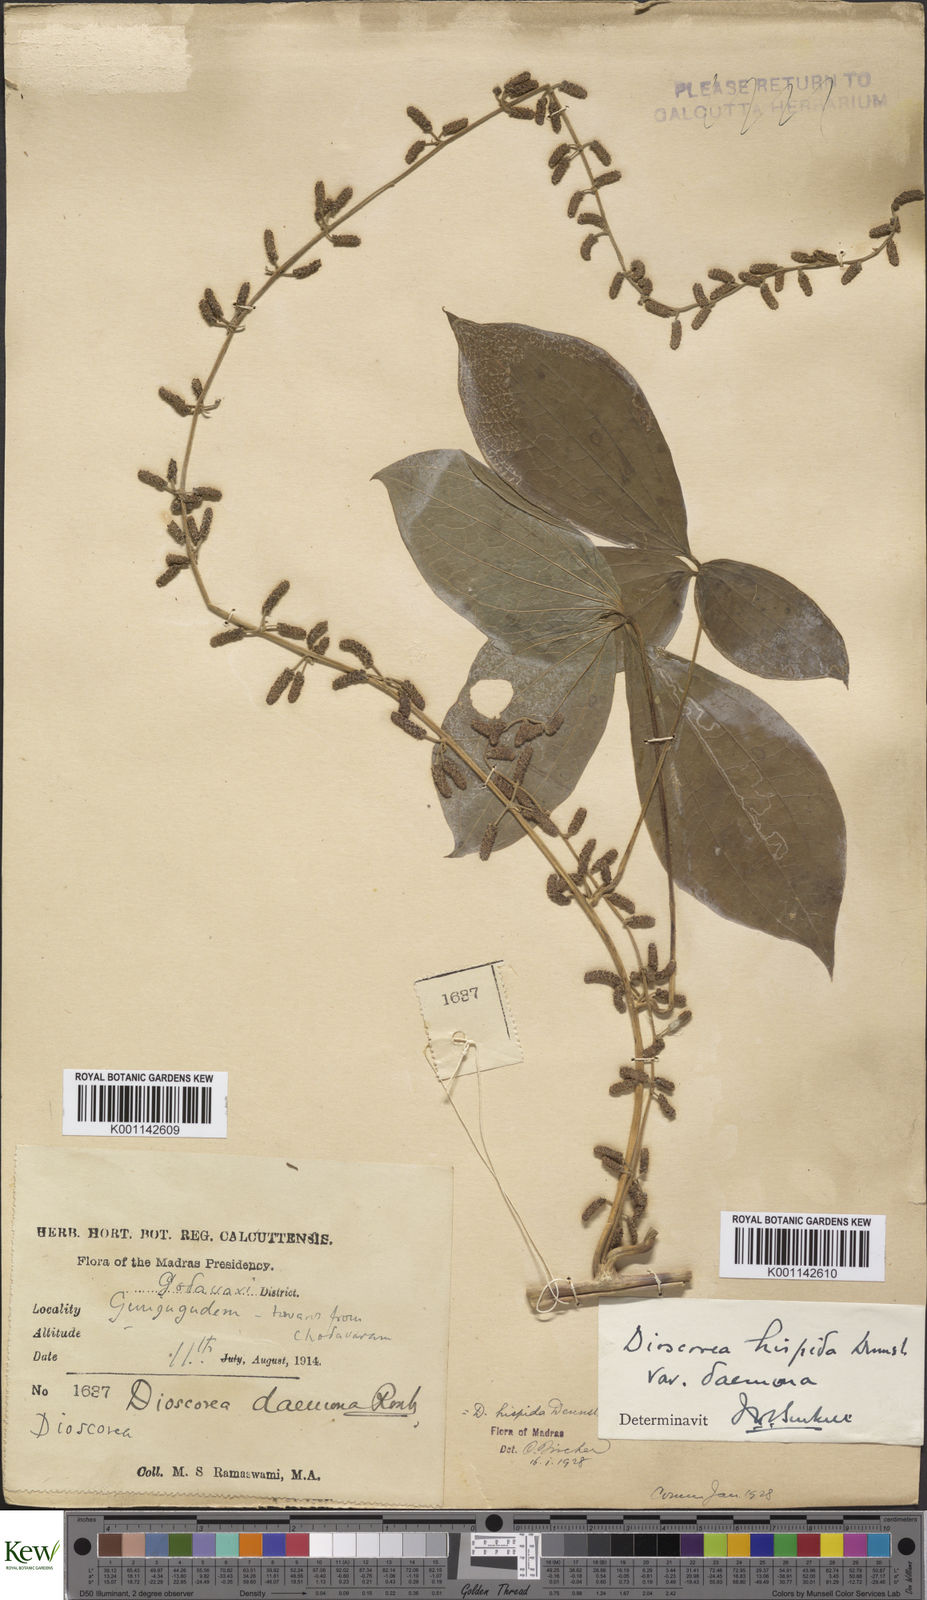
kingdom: Plantae
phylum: Tracheophyta
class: Liliopsida
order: Dioscoreales
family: Dioscoreaceae
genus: Dioscorea
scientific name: Dioscorea hispida
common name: Asiatic bitter yam
